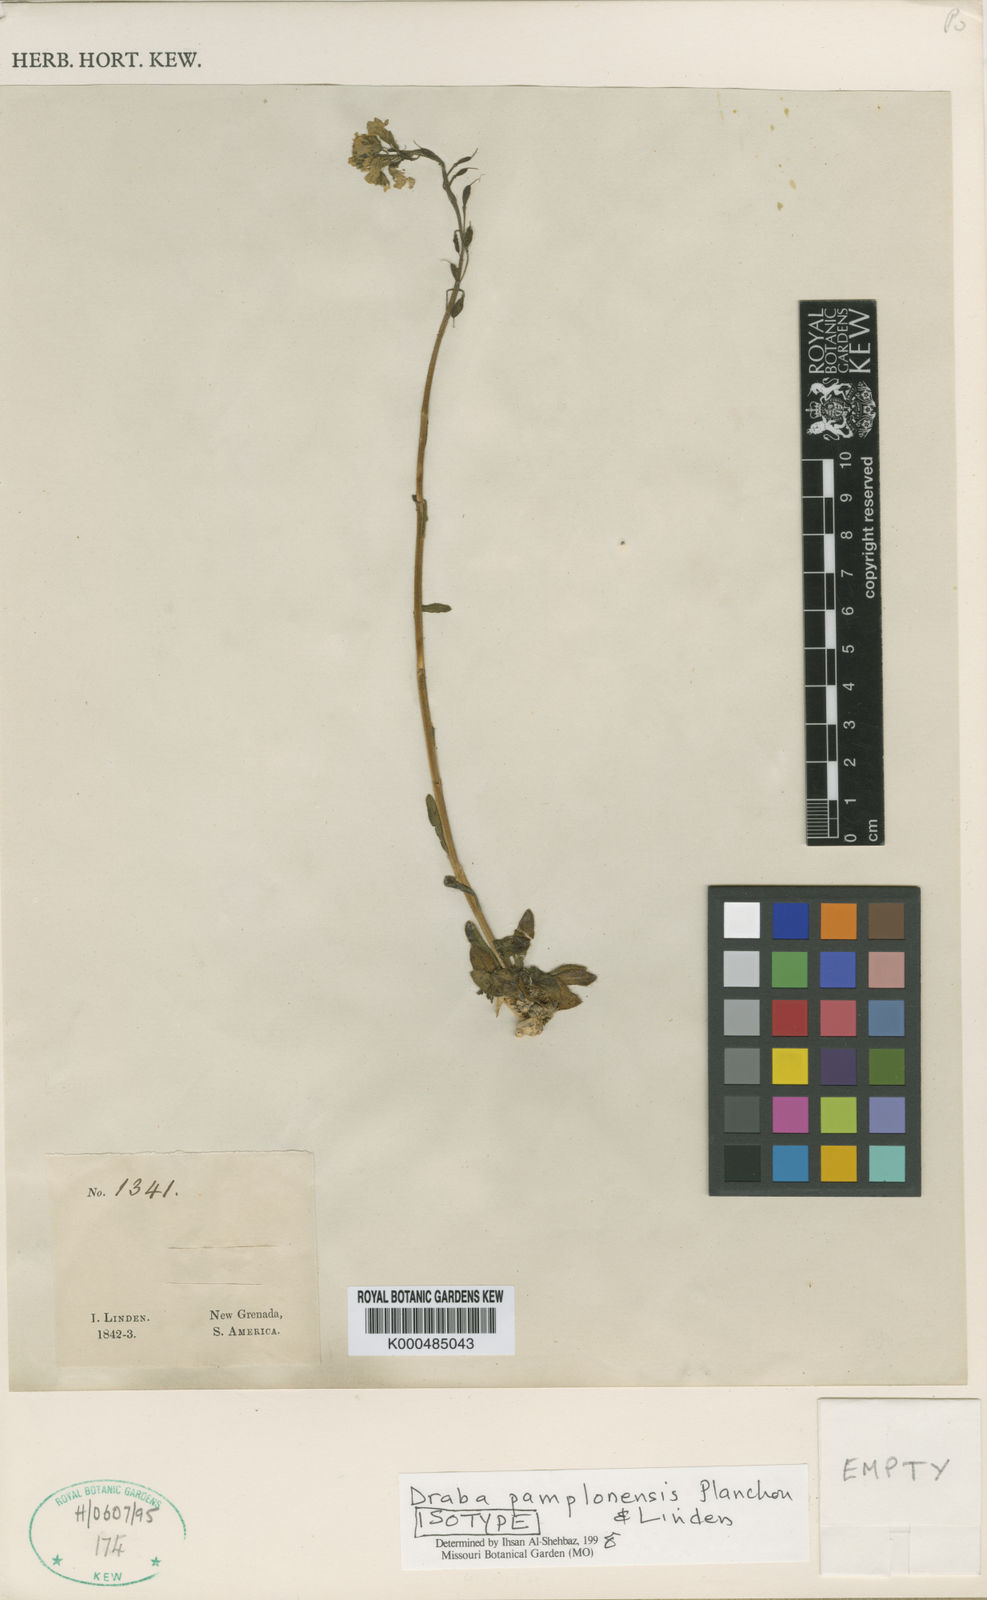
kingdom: Plantae
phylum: Tracheophyta
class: Magnoliopsida
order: Brassicales
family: Brassicaceae
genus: Draba
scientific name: Draba pamplonensis
